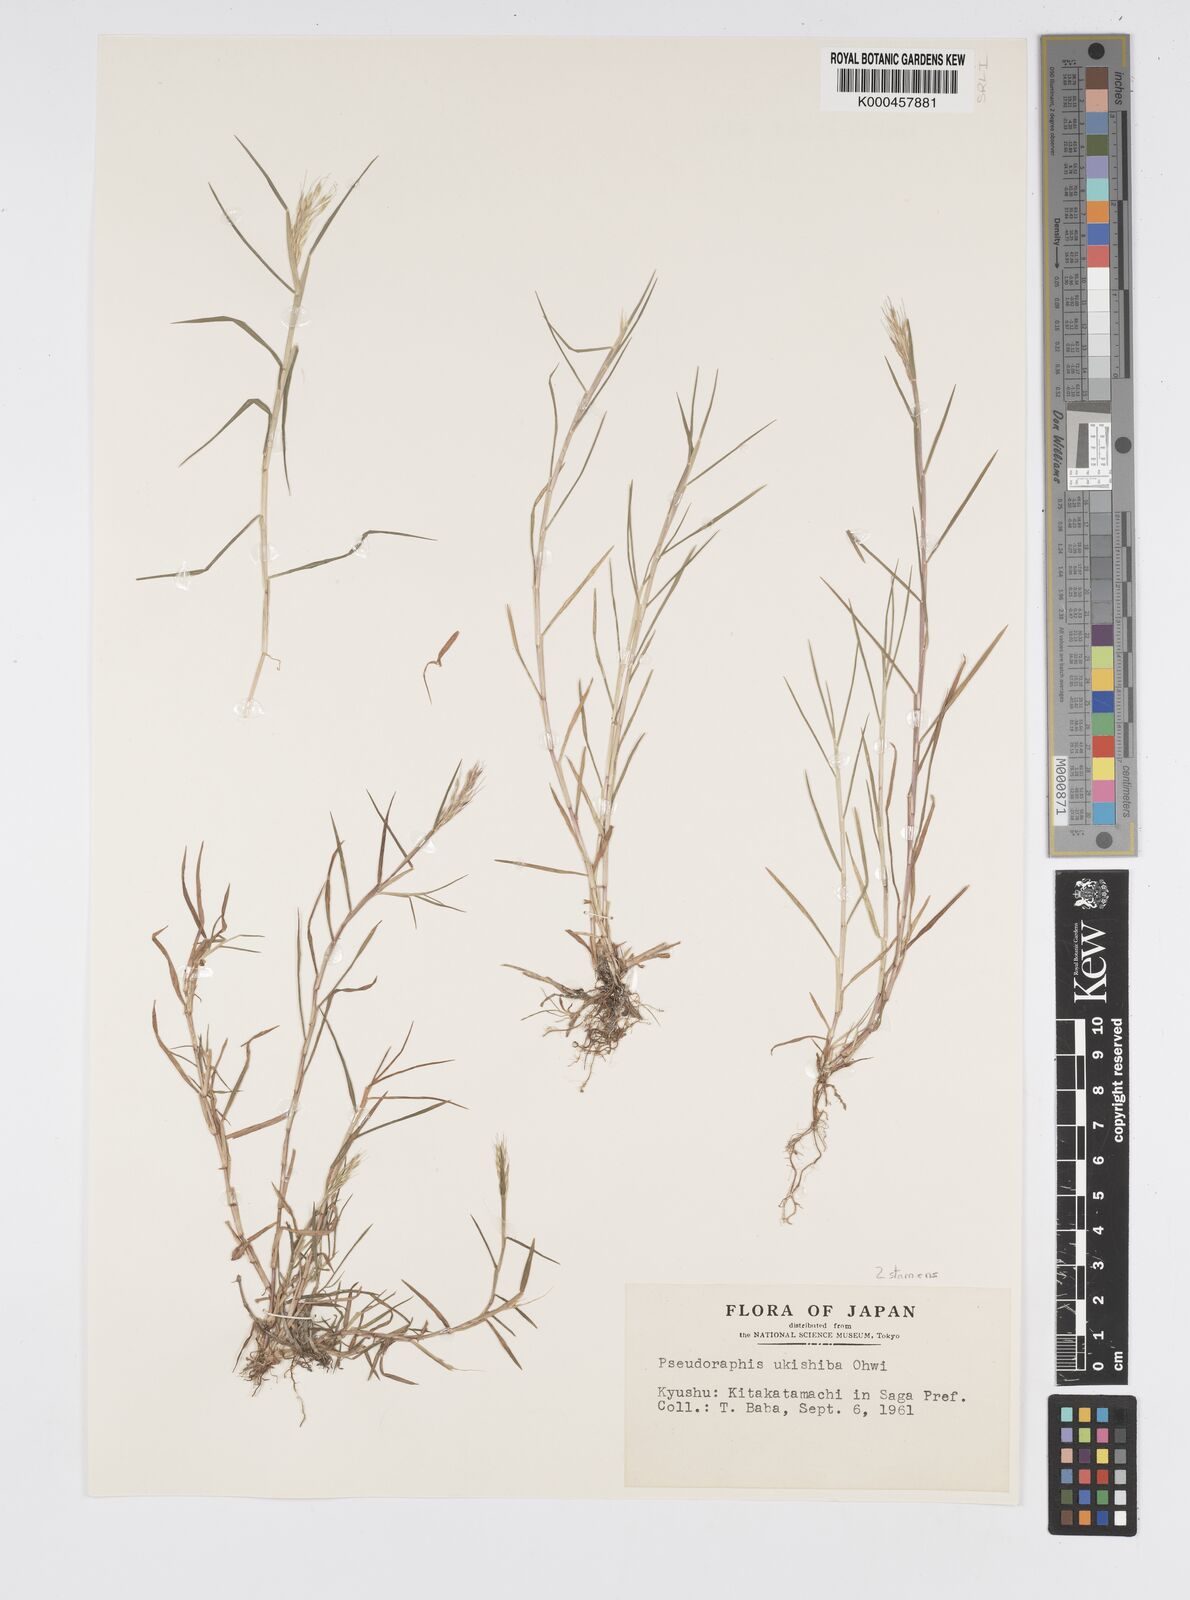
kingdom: Plantae
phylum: Tracheophyta
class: Liliopsida
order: Poales
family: Poaceae
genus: Pseudoraphis
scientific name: Pseudoraphis sordida
